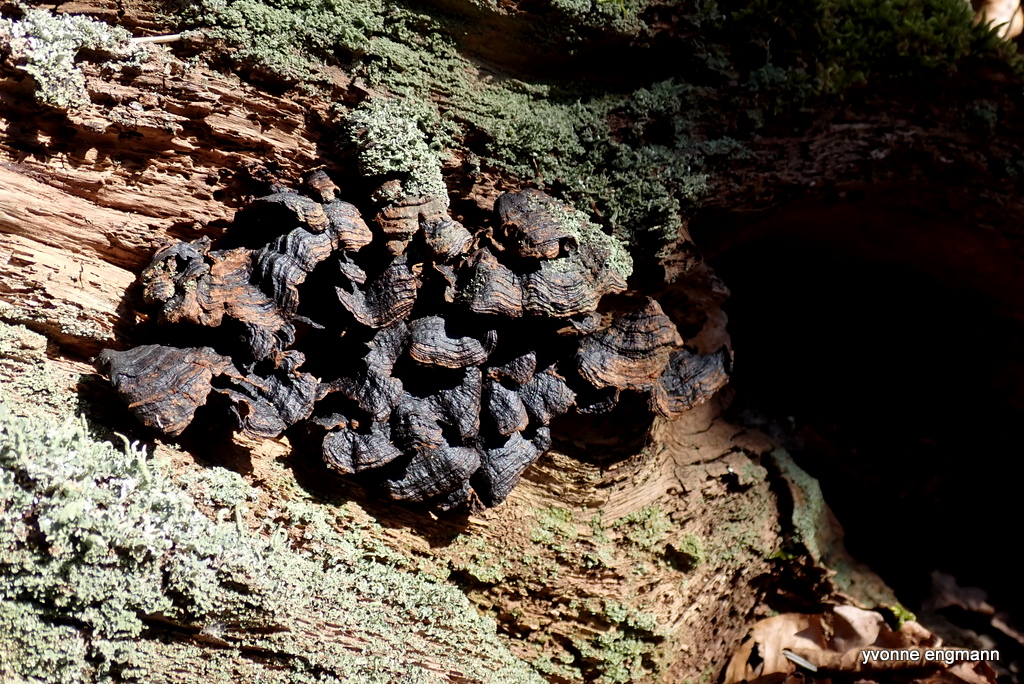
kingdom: Fungi
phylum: Basidiomycota
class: Agaricomycetes
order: Hymenochaetales
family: Hymenochaetaceae
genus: Hymenochaete
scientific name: Hymenochaete rubiginosa
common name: stiv ruslædersvamp
